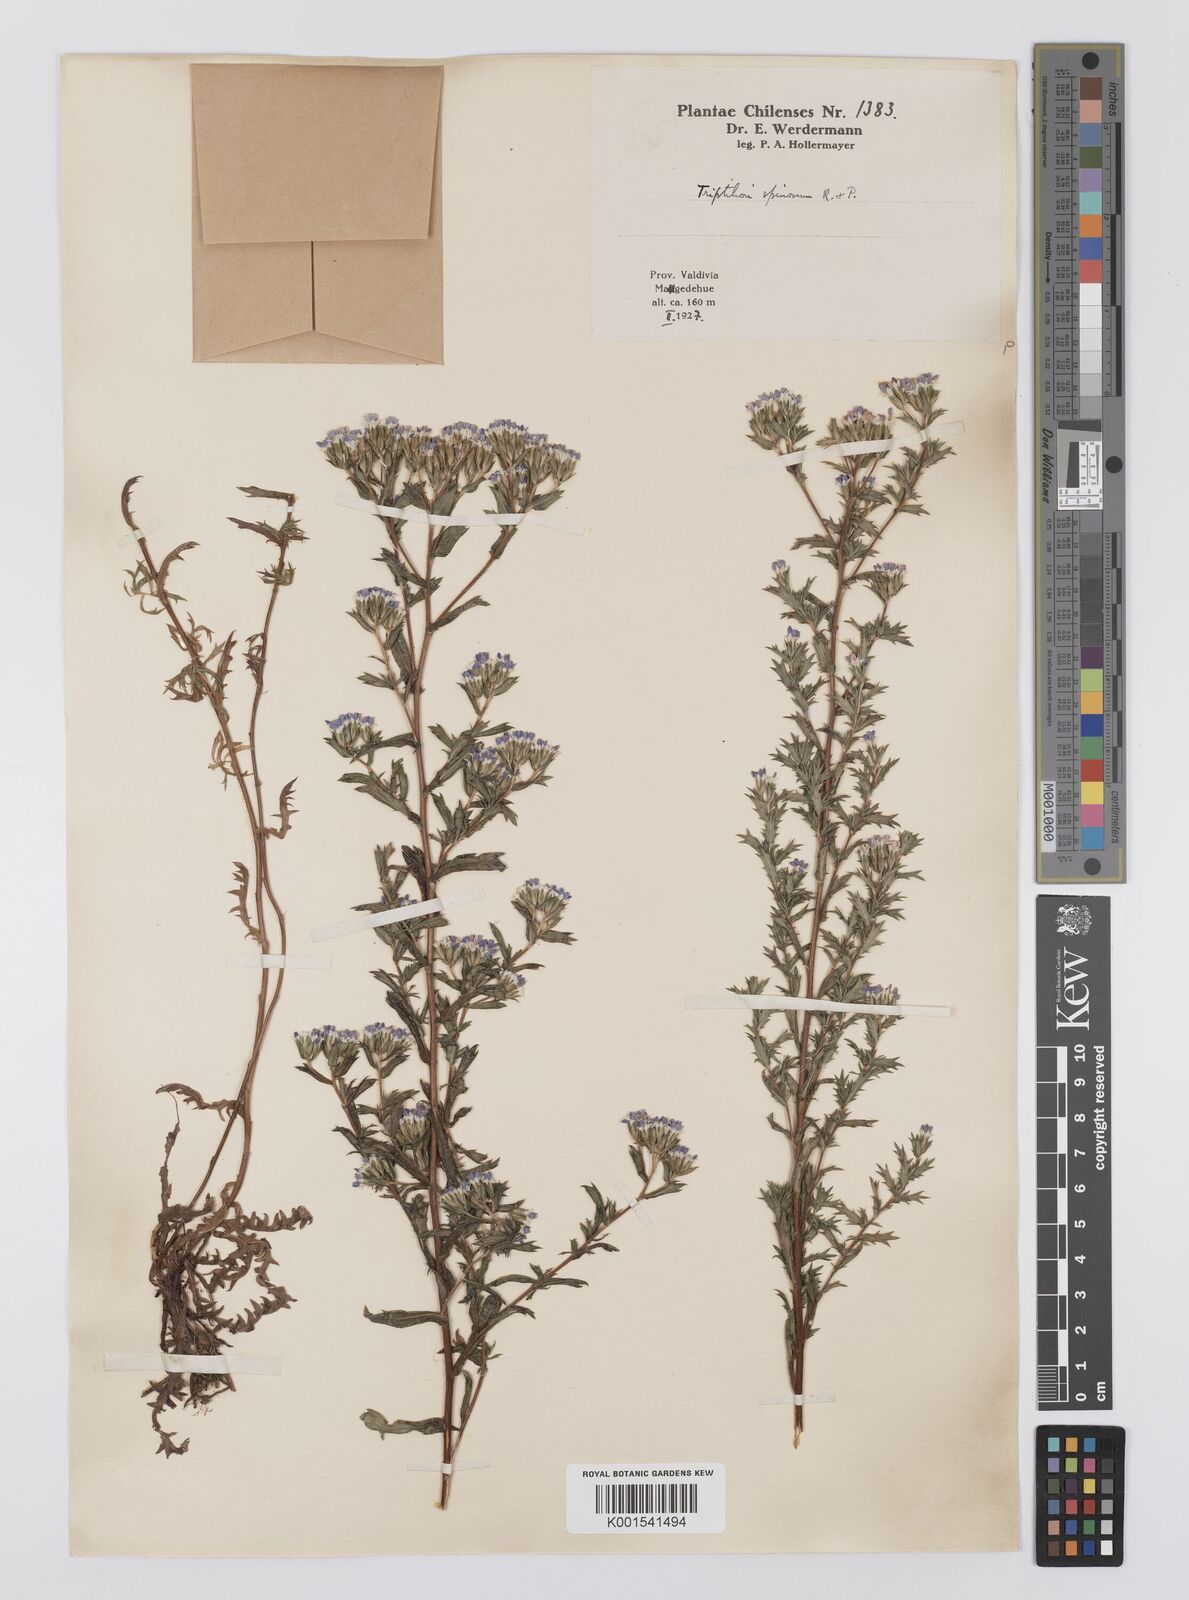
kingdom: Plantae
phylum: Tracheophyta
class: Magnoliopsida
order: Asterales
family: Asteraceae
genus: Triptilion
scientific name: Triptilion spinosum
